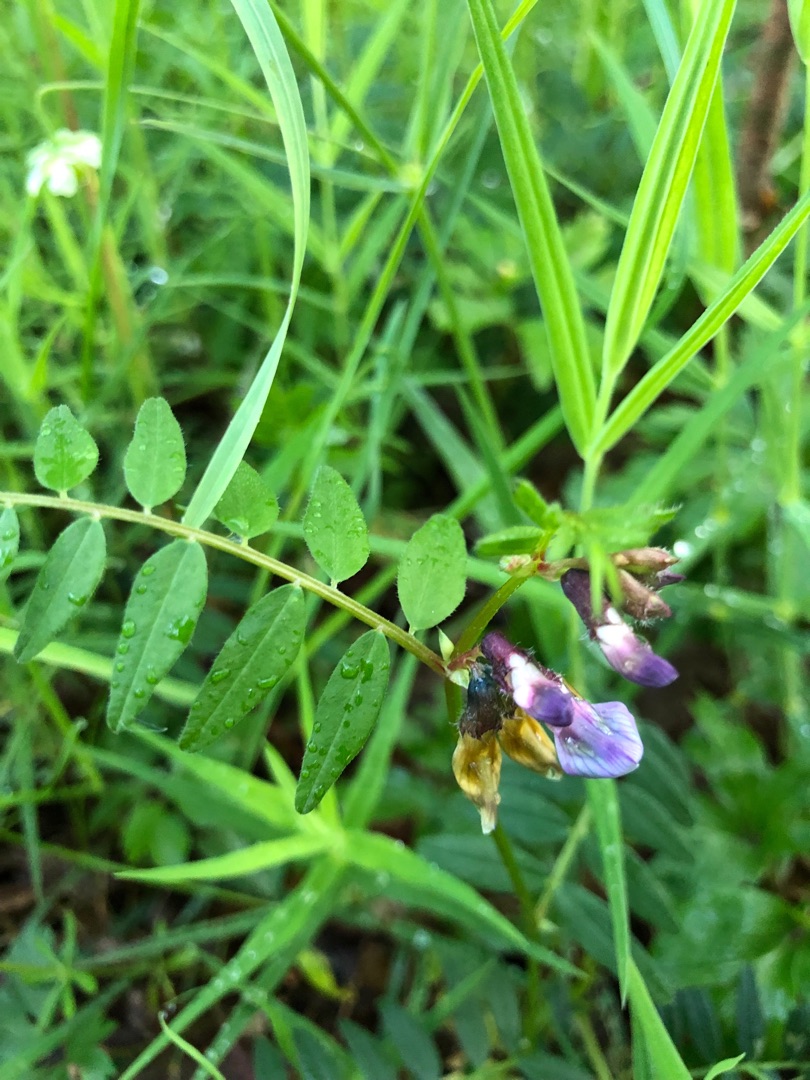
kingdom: Plantae
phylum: Tracheophyta
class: Magnoliopsida
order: Fabales
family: Fabaceae
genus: Vicia
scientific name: Vicia sepium
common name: Gærde-vikke
